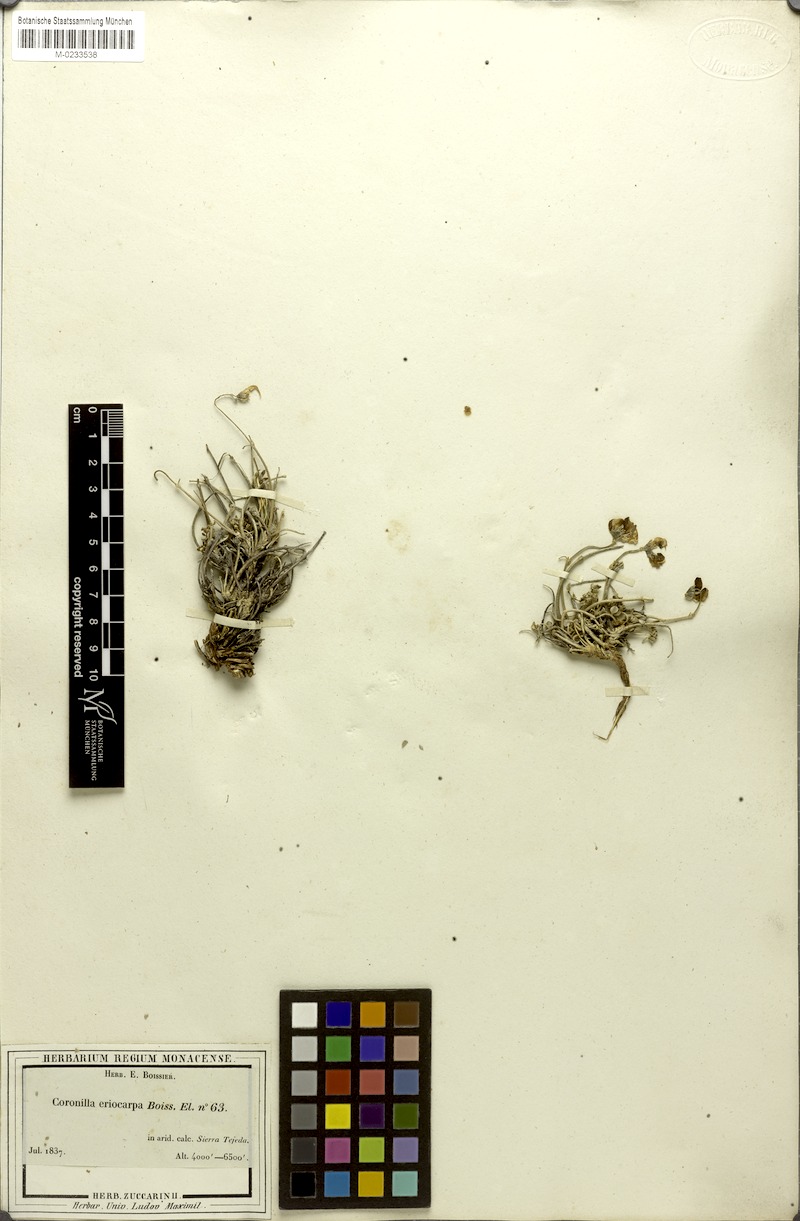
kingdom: Plantae
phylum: Tracheophyta
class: Magnoliopsida
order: Fabales
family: Fabaceae
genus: Hippocrepis
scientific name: Hippocrepis eriocarpa
